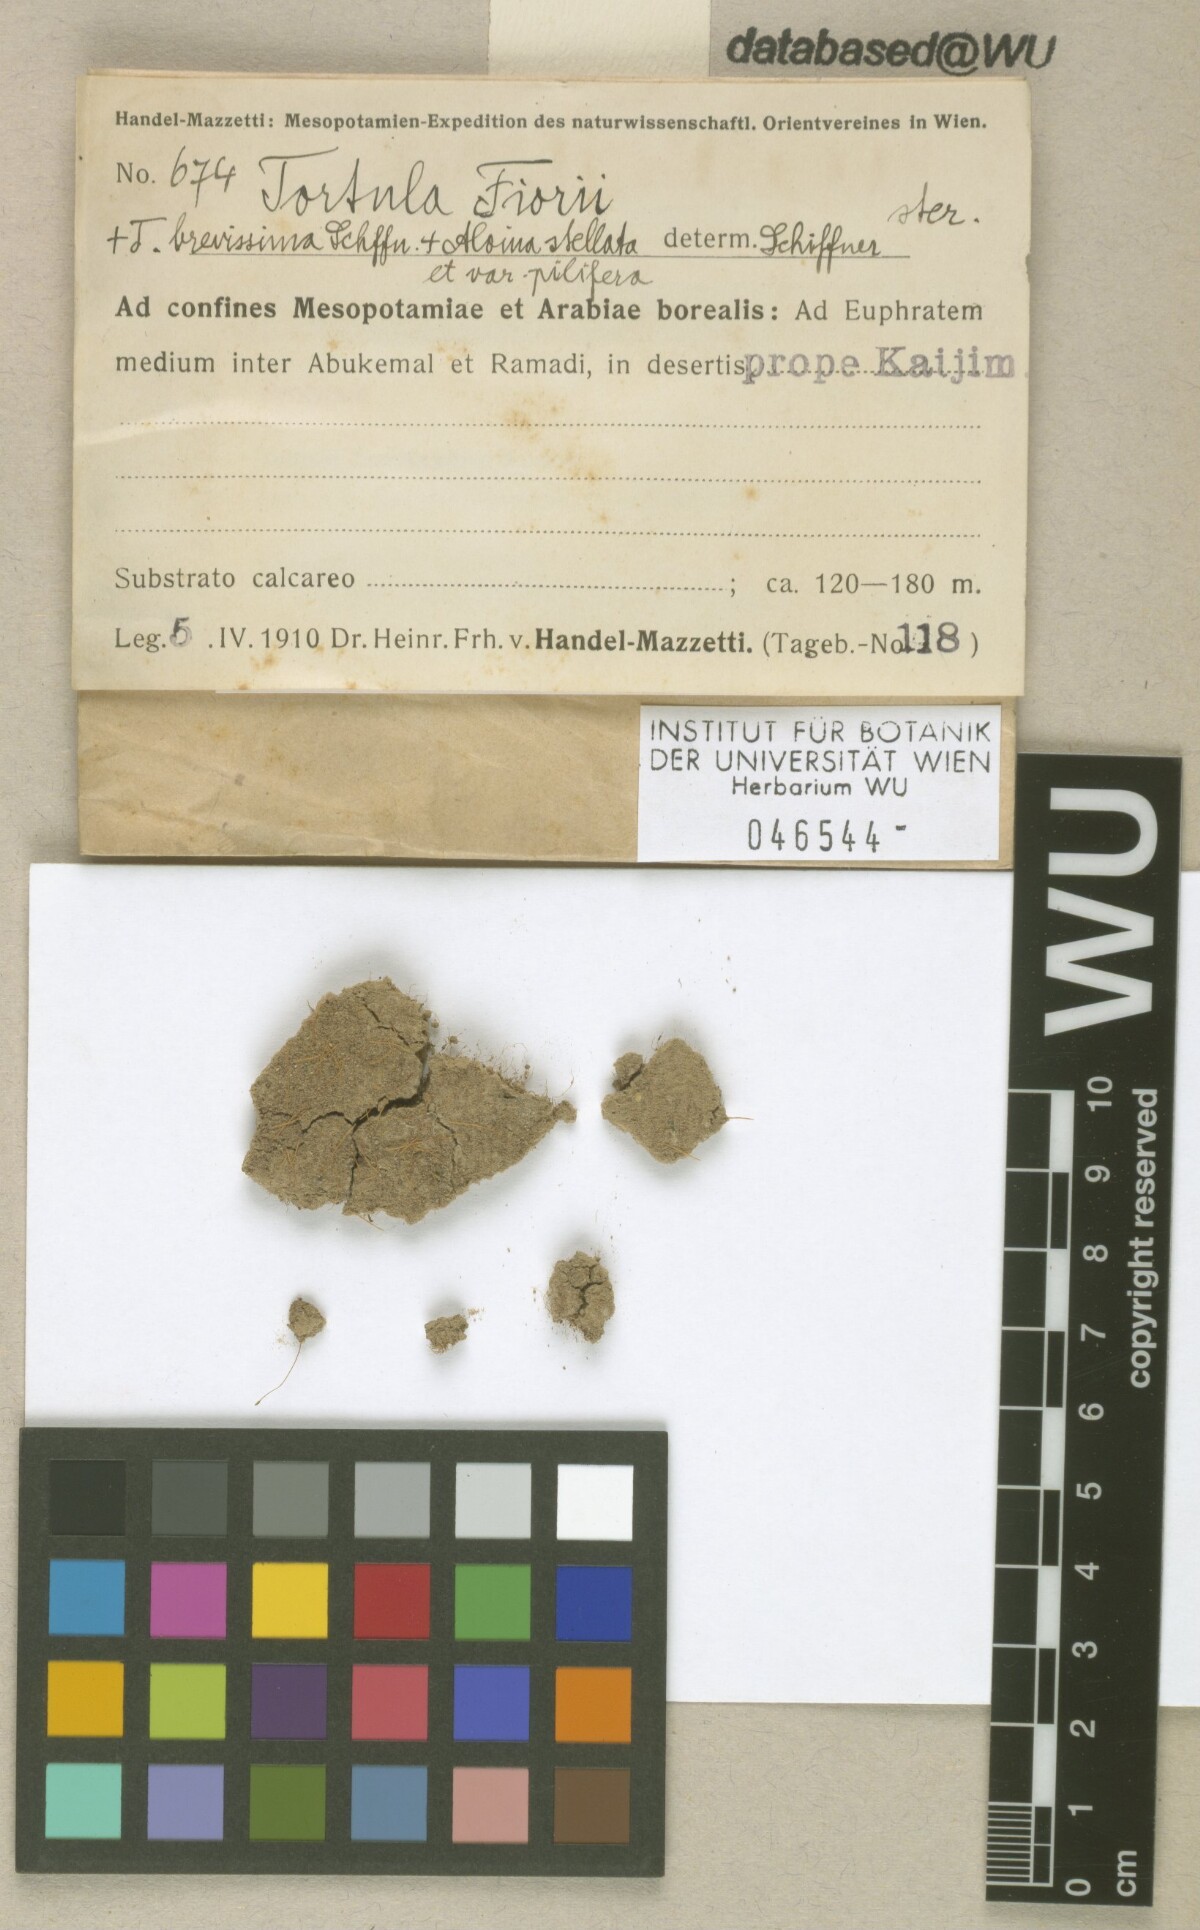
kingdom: Plantae
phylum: Bryophyta
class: Bryopsida
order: Pottiales
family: Pottiaceae
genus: Tortula
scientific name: Tortula revolvens
